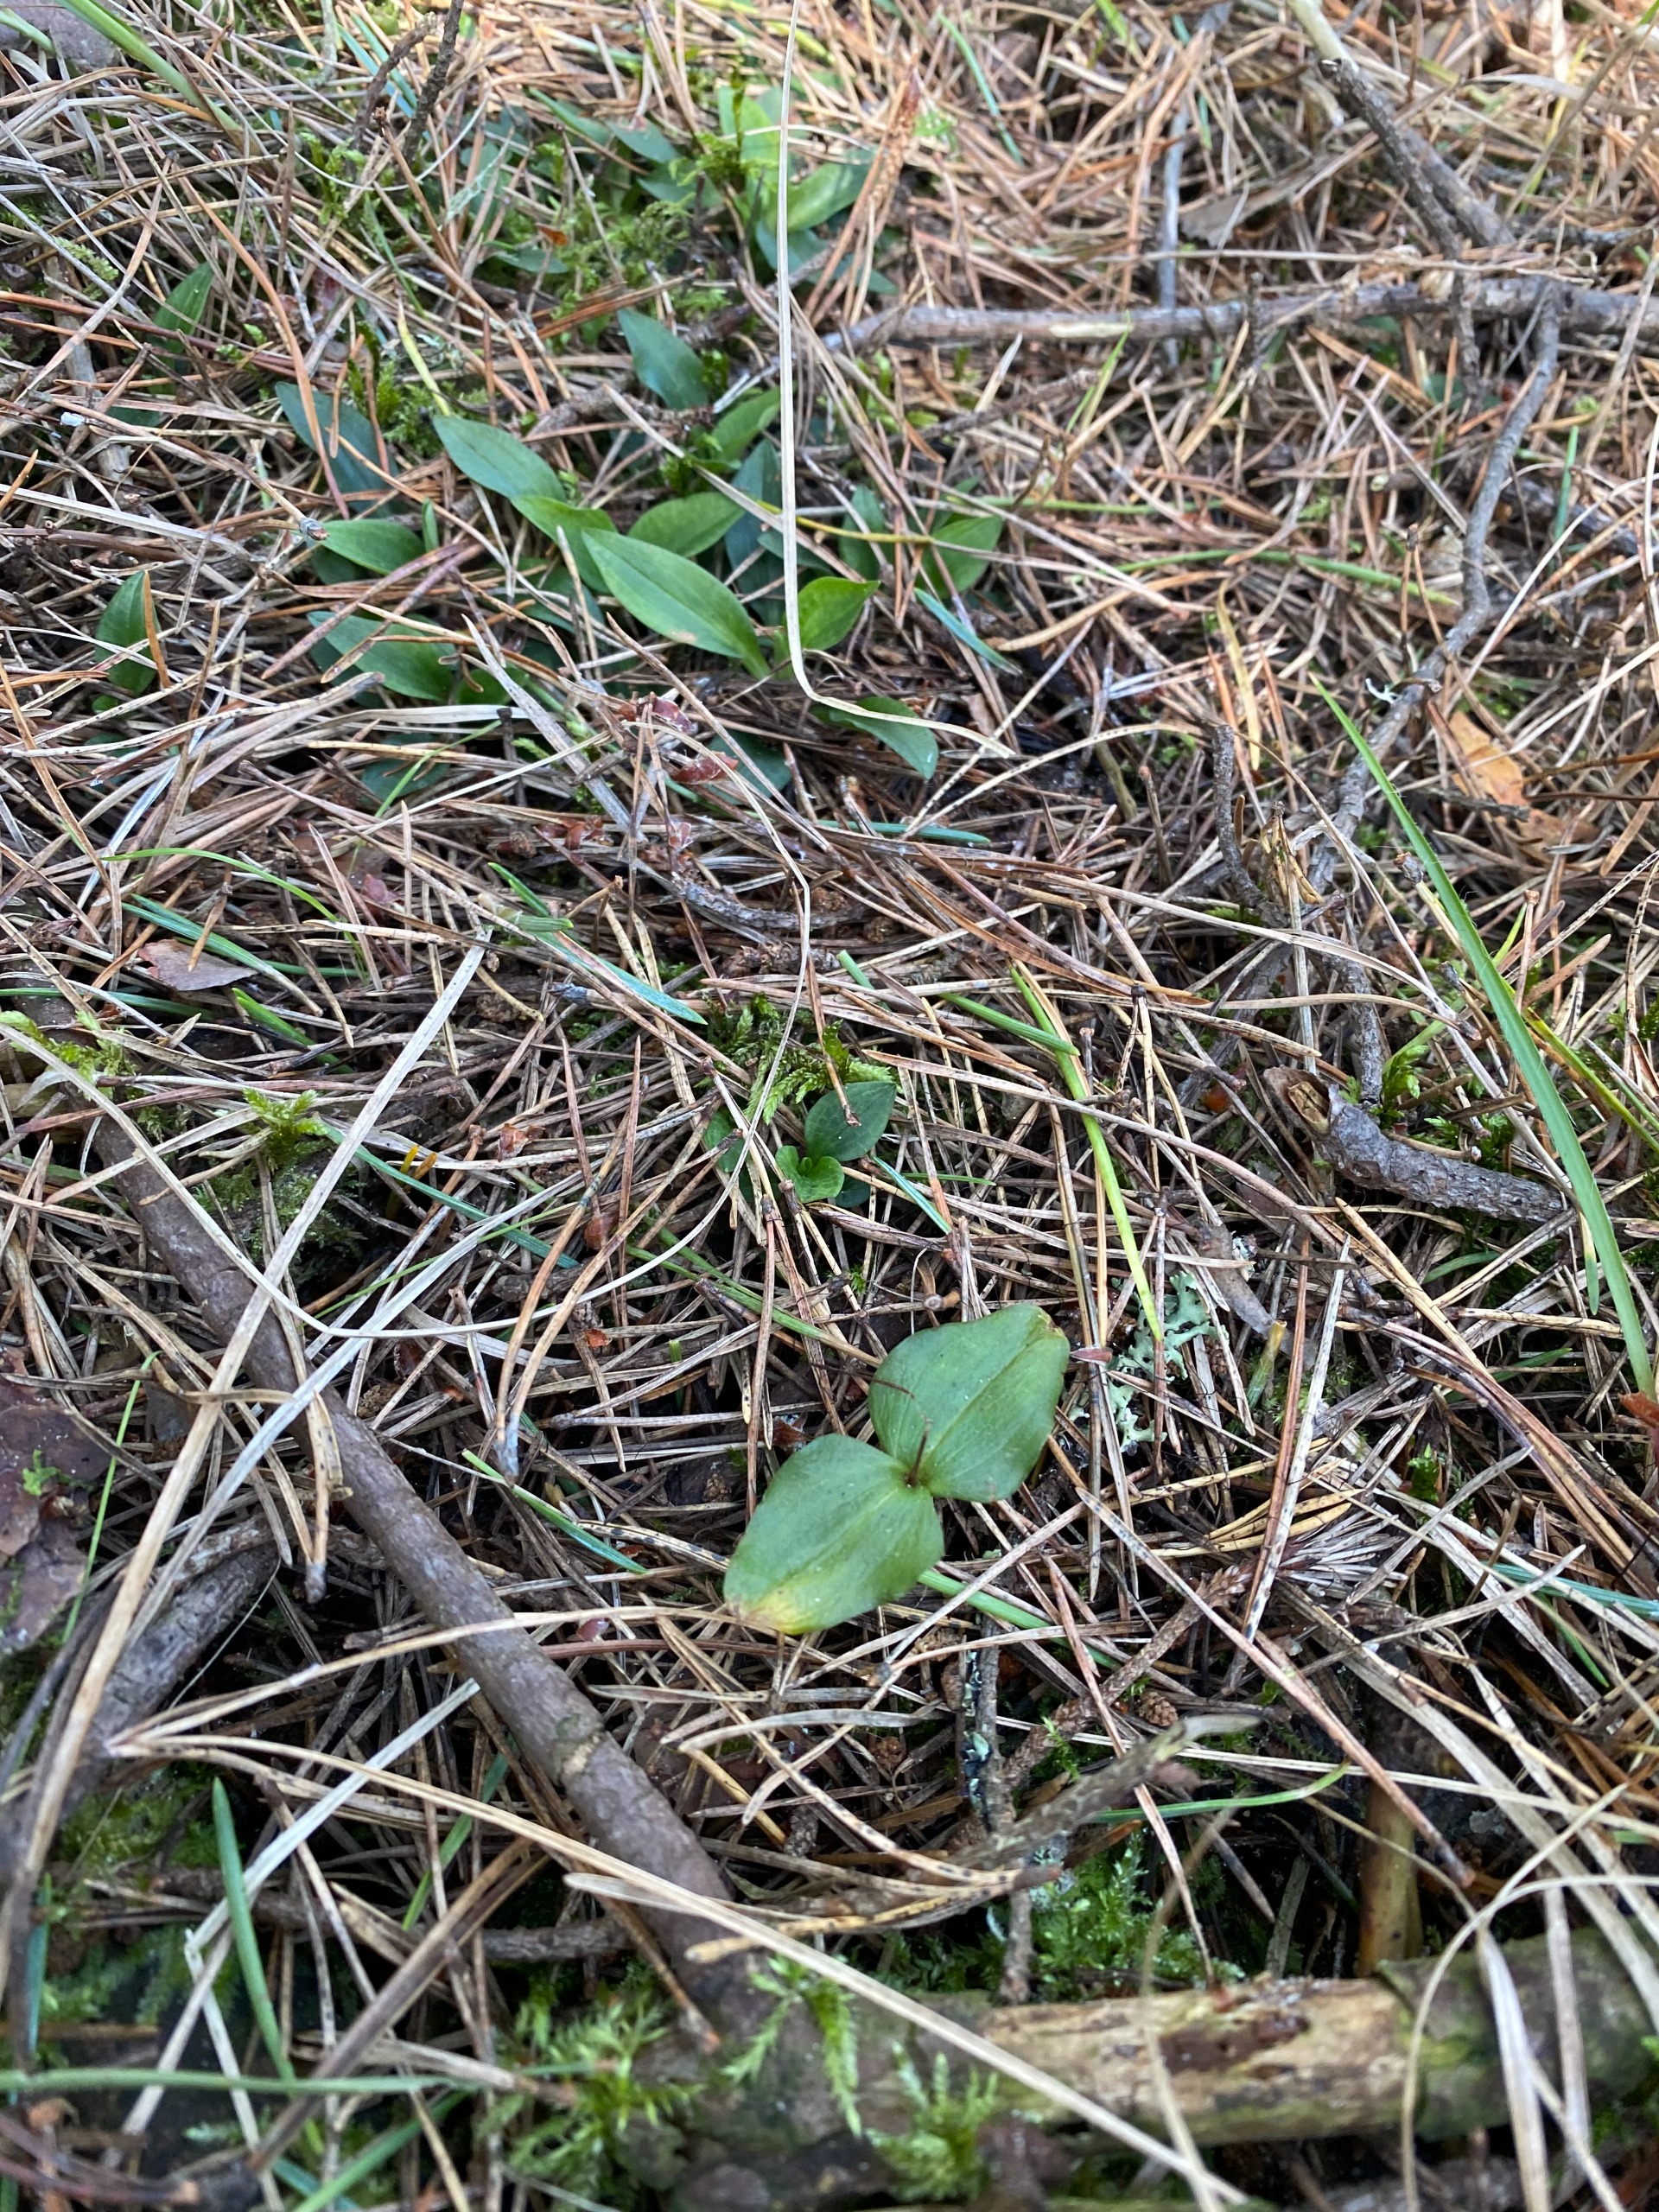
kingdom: Plantae
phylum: Tracheophyta
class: Liliopsida
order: Asparagales
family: Orchidaceae
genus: Goodyera
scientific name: Goodyera repens
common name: Knærod
